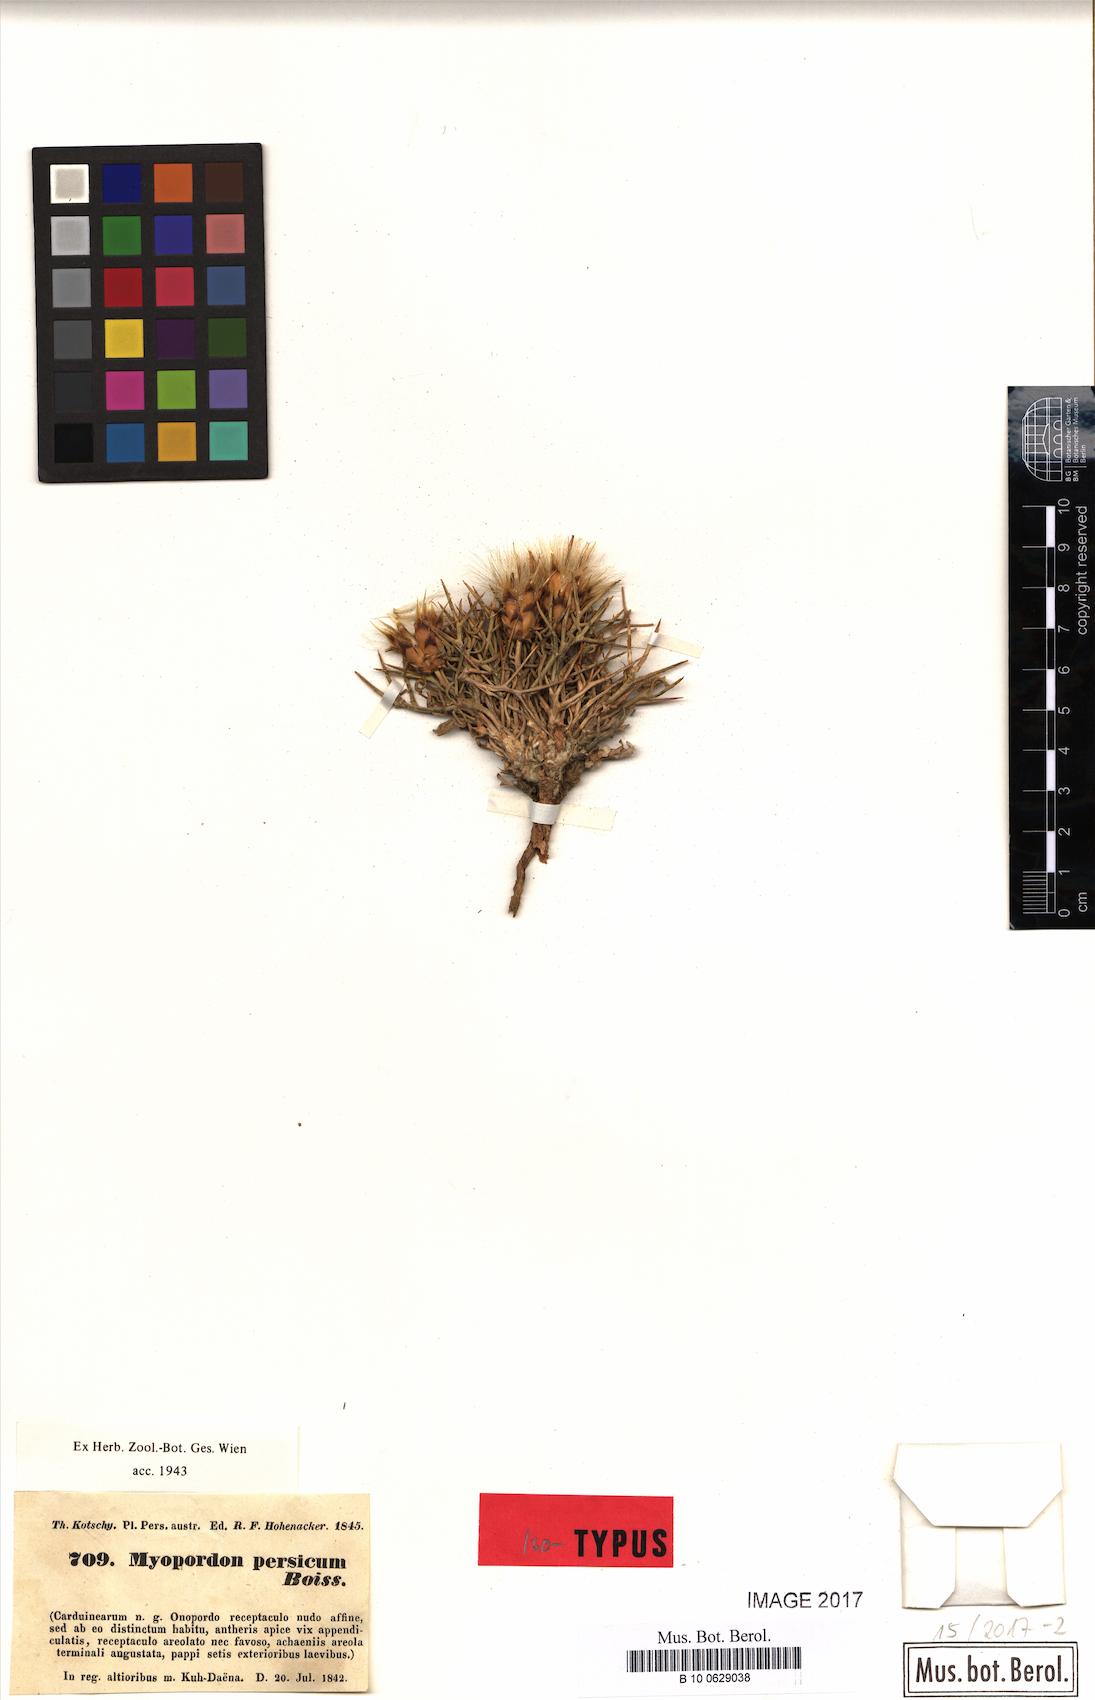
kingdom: Plantae
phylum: Tracheophyta
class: Magnoliopsida
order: Asterales
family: Asteraceae
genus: Myopordon
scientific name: Myopordon persicum
